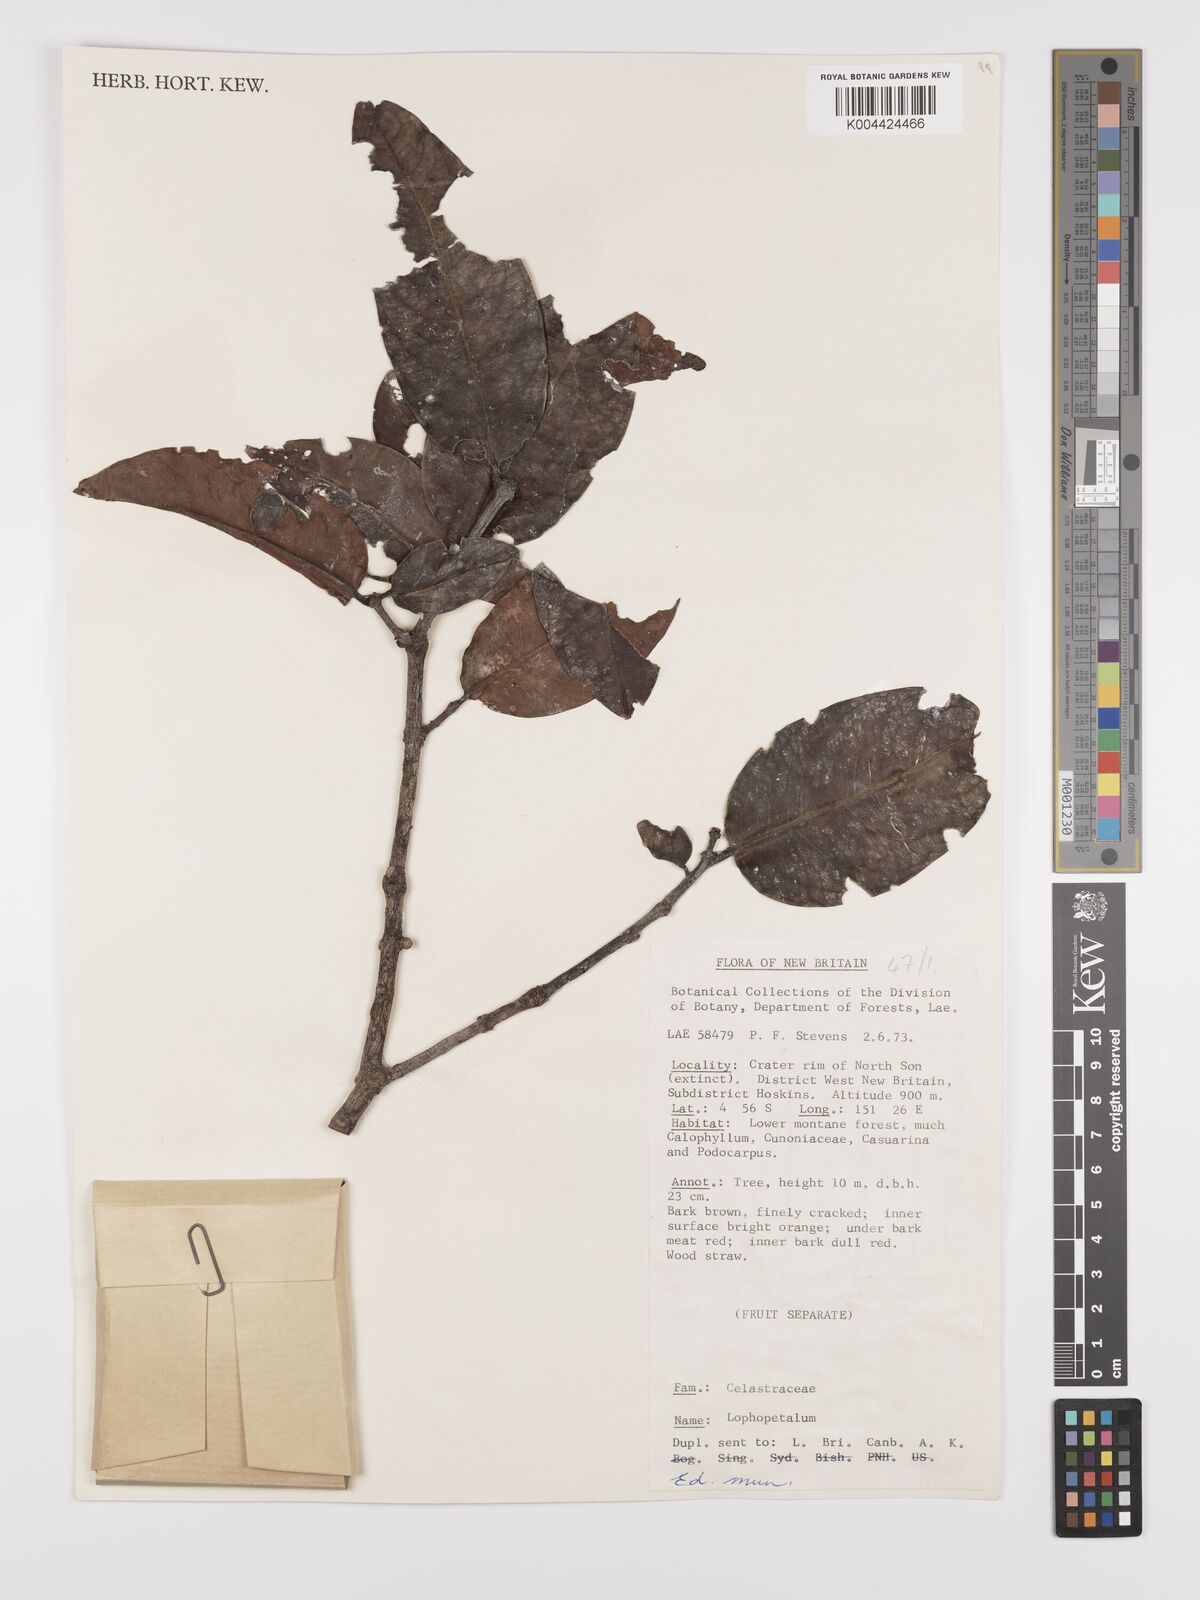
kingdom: Plantae
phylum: Tracheophyta
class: Magnoliopsida
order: Celastrales
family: Celastraceae
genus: Lophopetalum
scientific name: Lophopetalum
